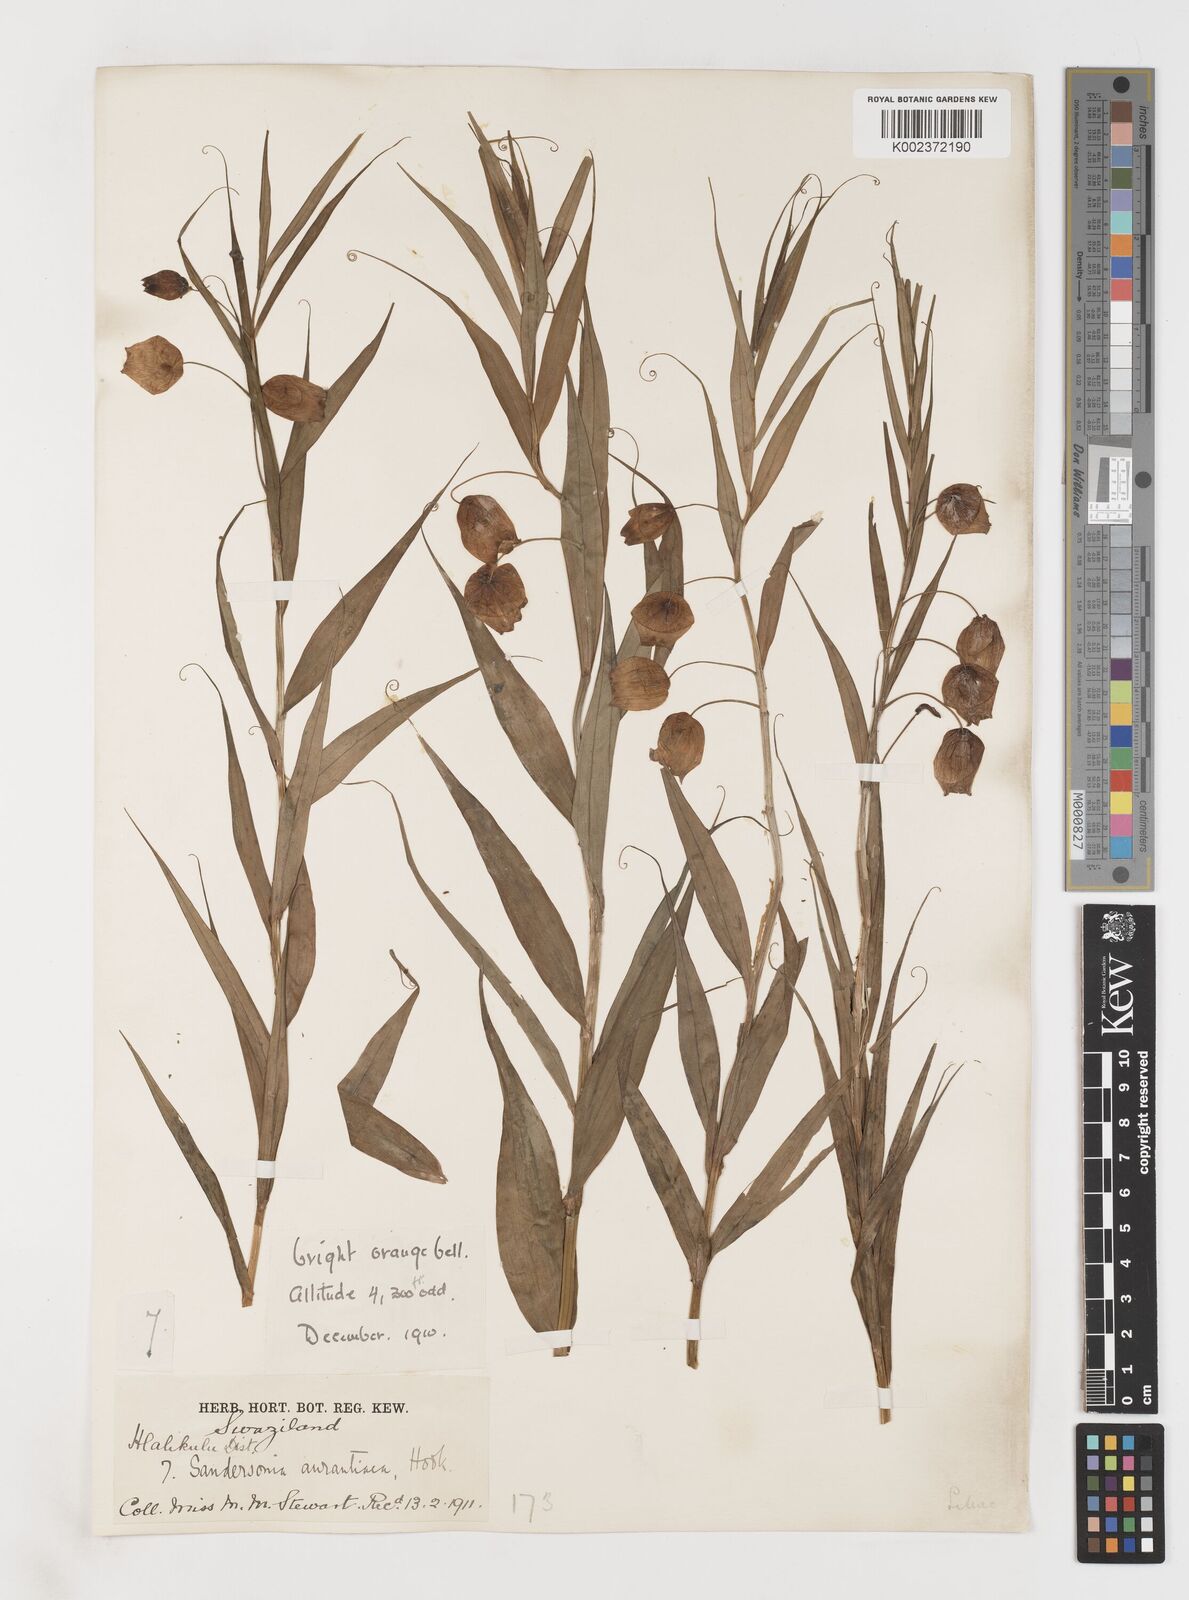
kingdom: Plantae
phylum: Tracheophyta
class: Liliopsida
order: Liliales
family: Colchicaceae
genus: Sandersonia
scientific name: Sandersonia aurantiaca
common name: Chinese-lantern-lily
